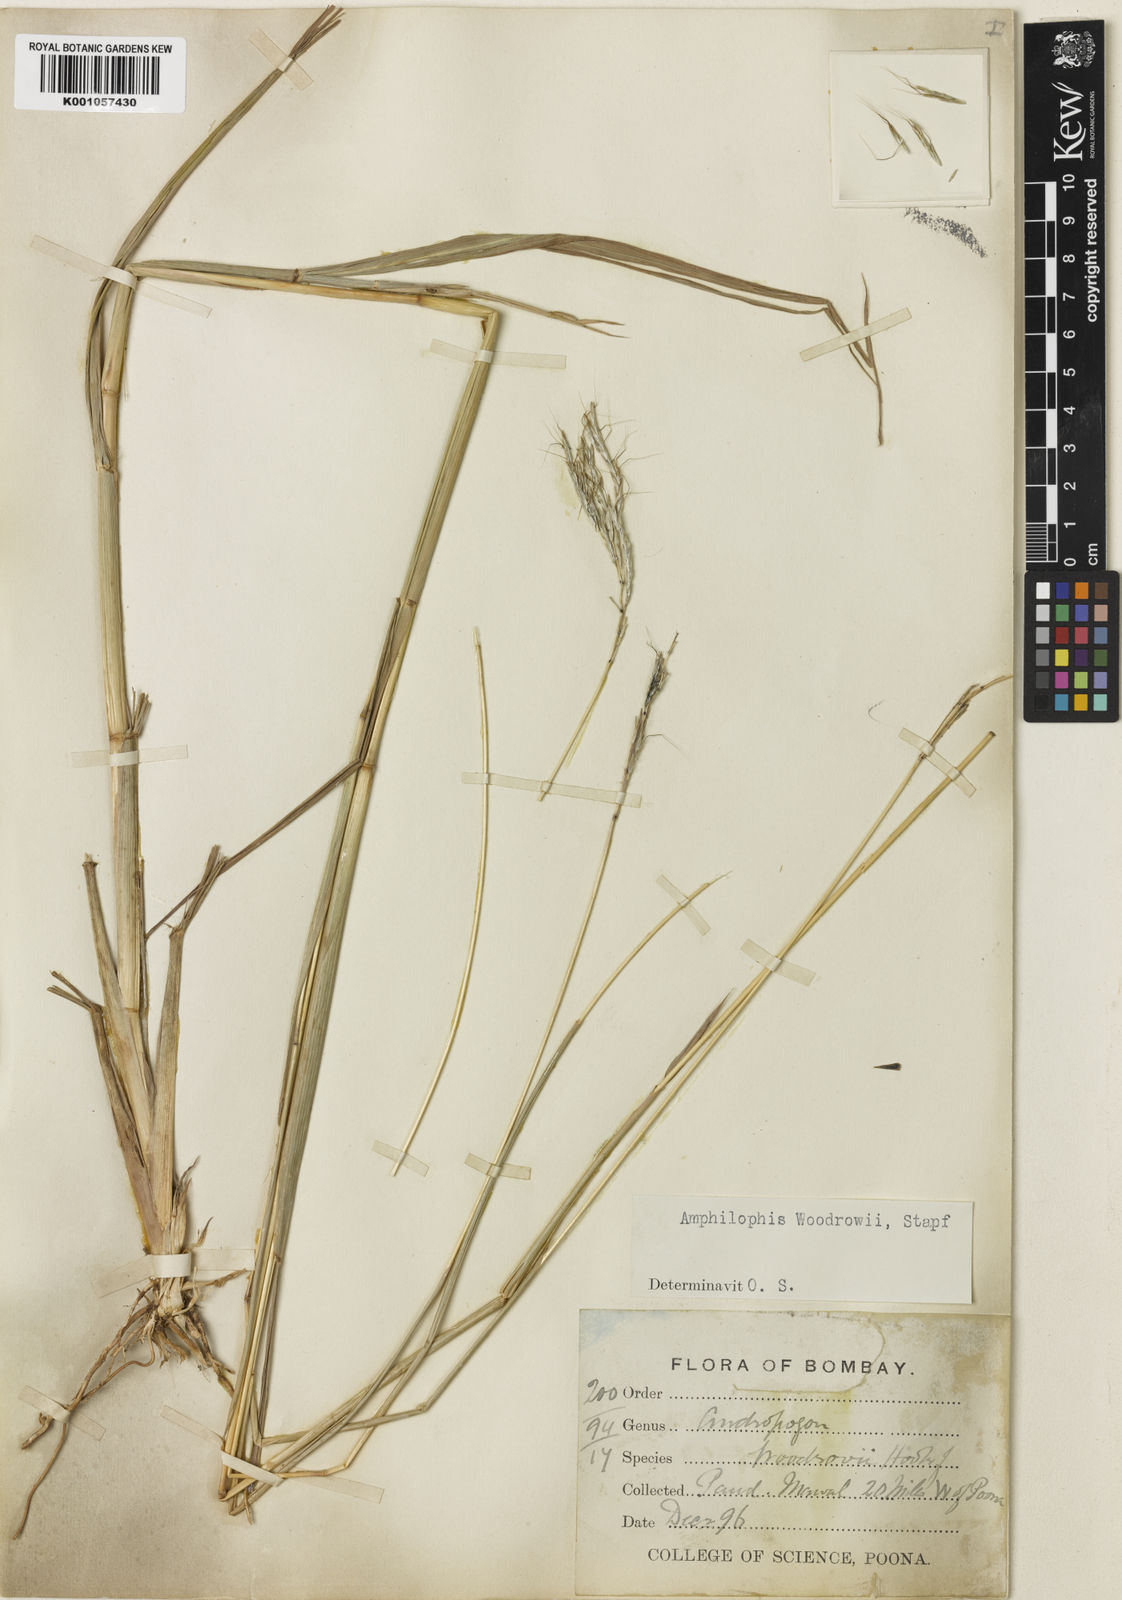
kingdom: Plantae
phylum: Tracheophyta
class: Liliopsida
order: Poales
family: Poaceae
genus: Bothriochloa
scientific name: Bothriochloa woodrovii
